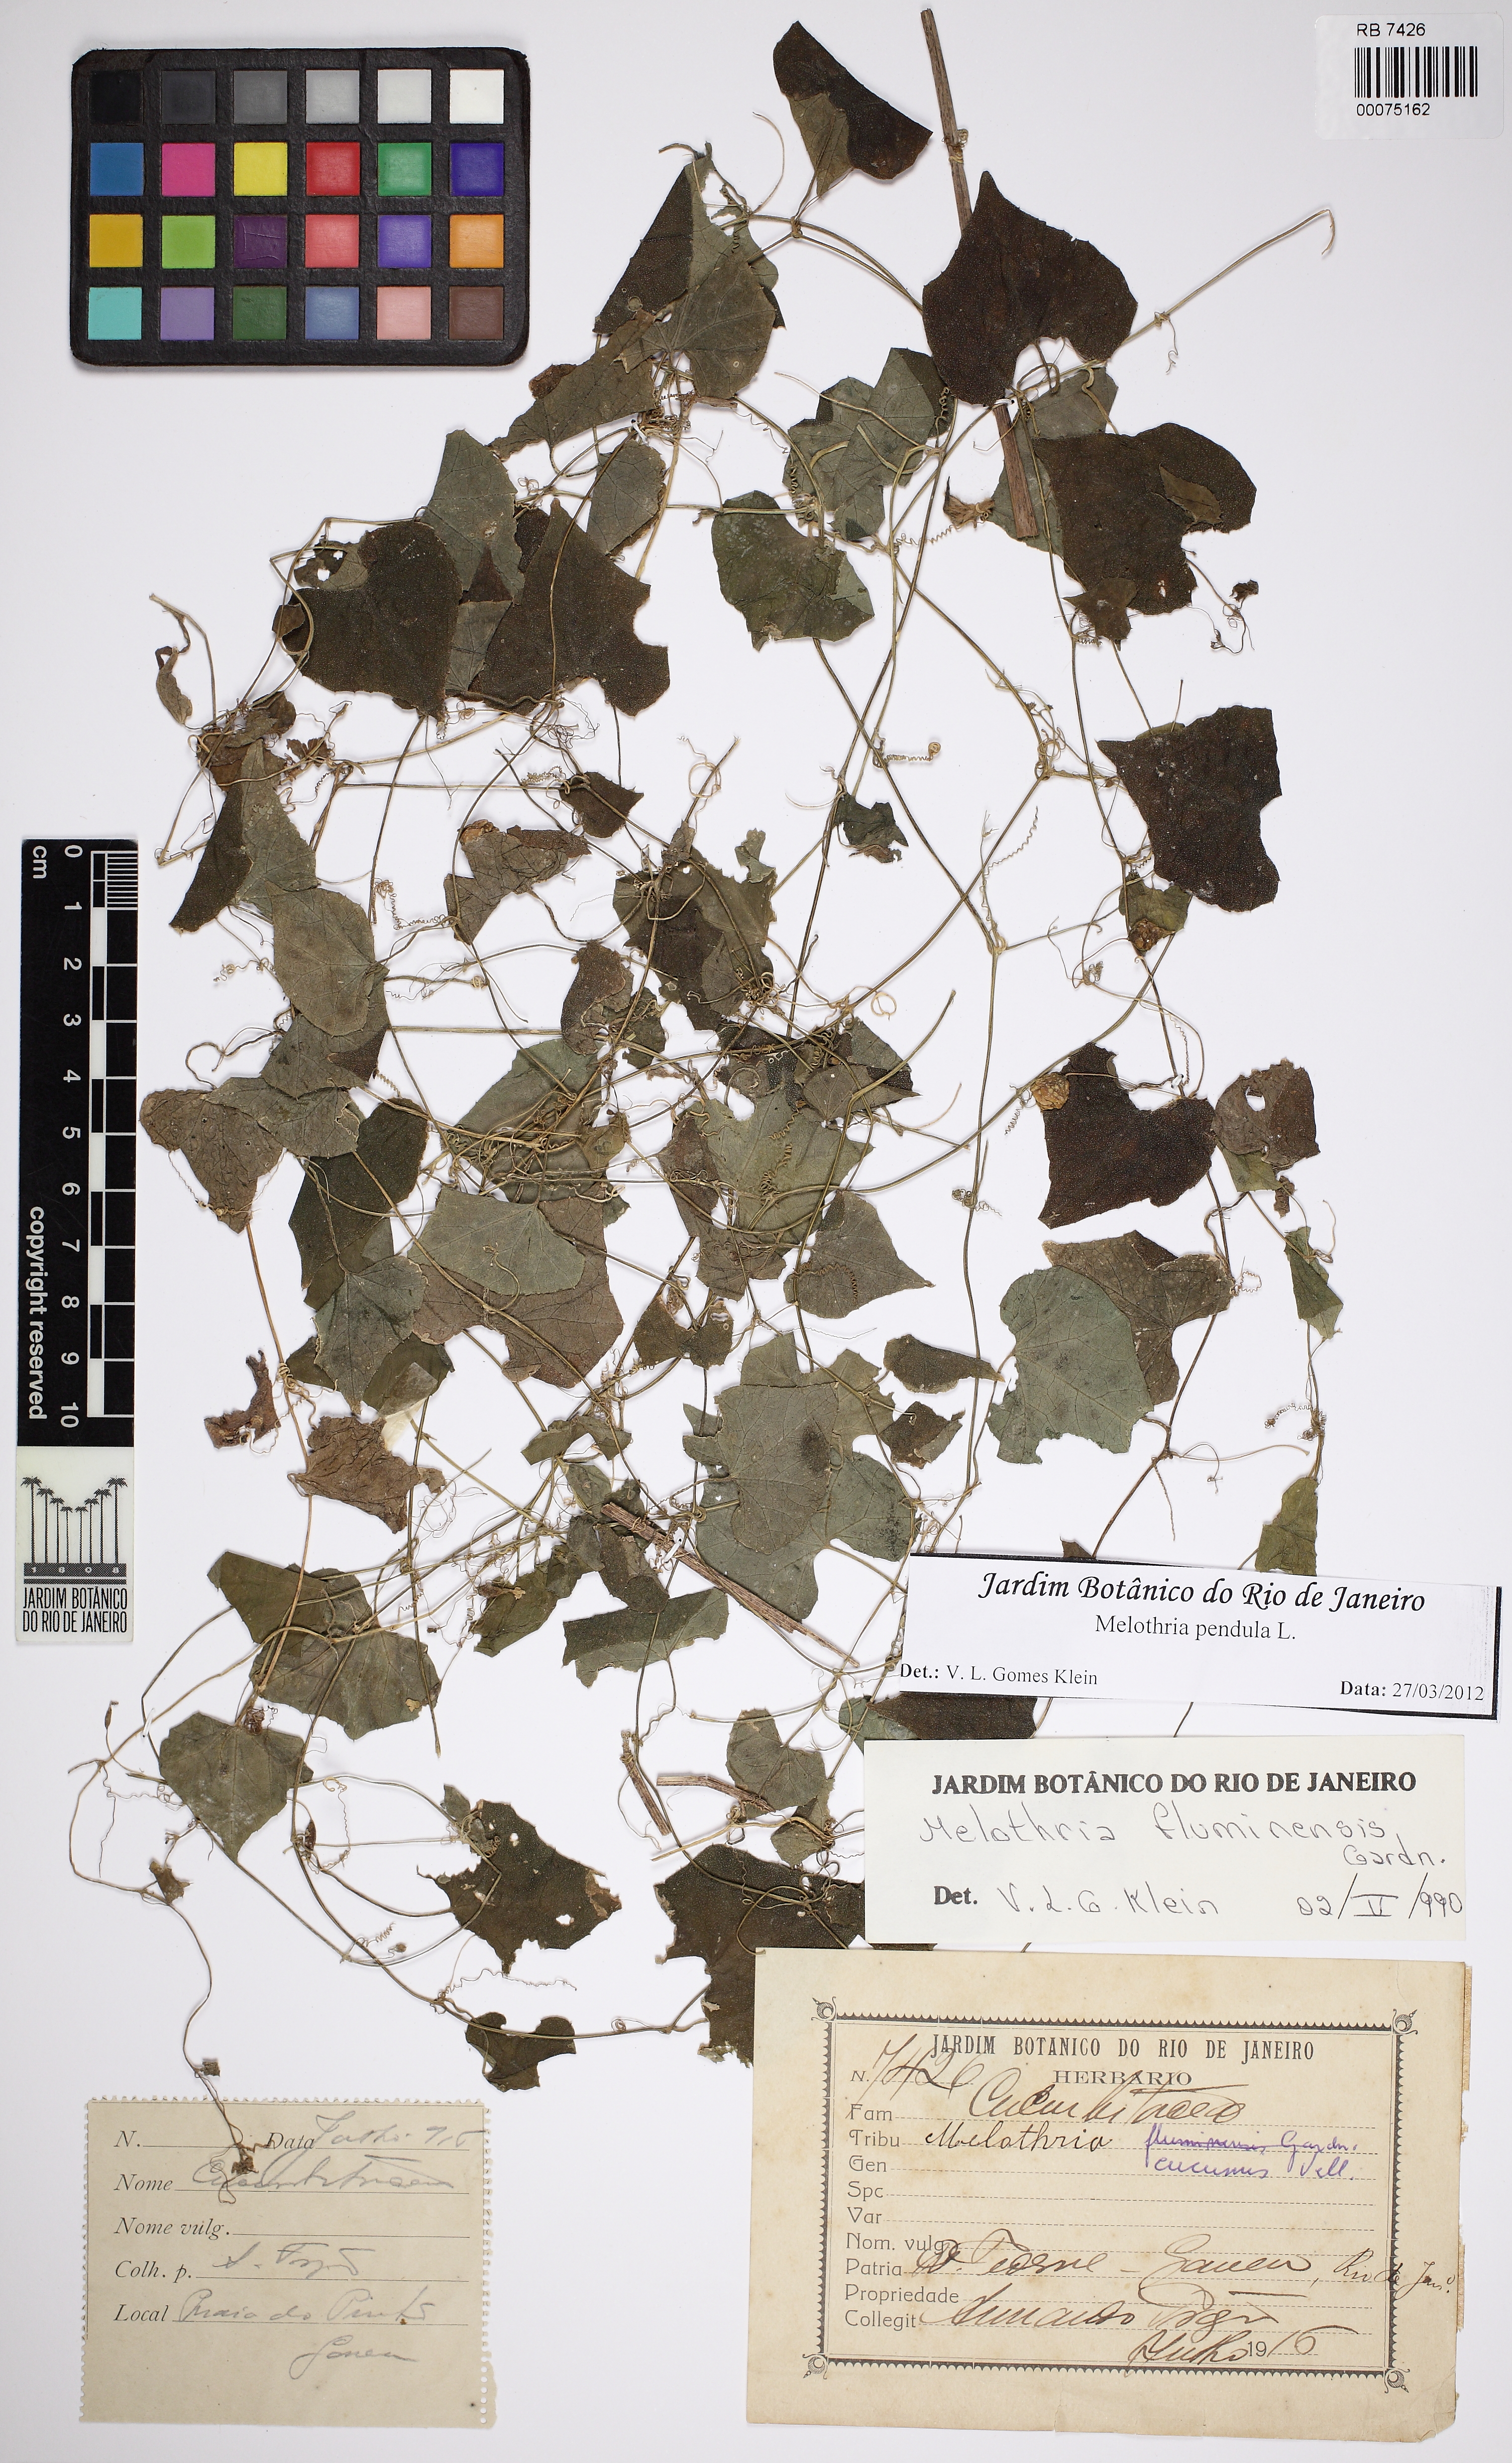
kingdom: Plantae
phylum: Tracheophyta
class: Magnoliopsida
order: Cucurbitales
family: Cucurbitaceae
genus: Melothria
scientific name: Melothria pendula
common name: Creeping-cucumber
